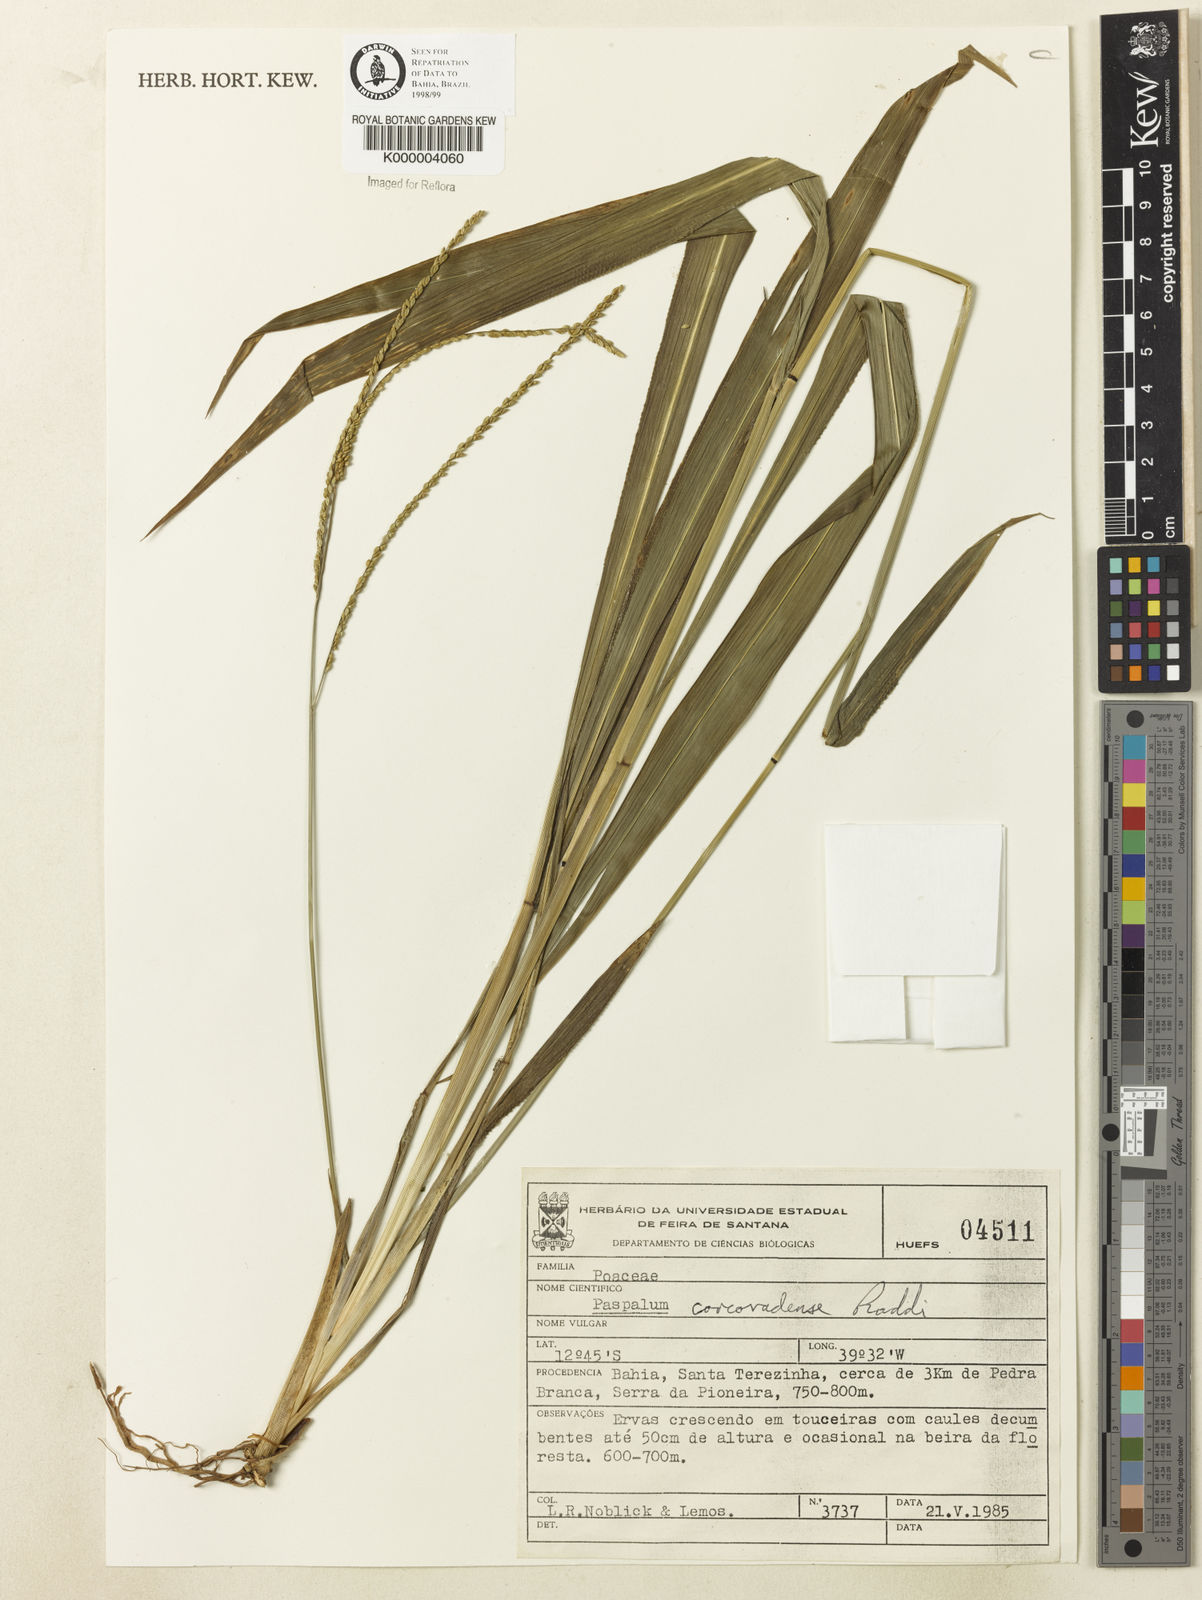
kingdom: Plantae
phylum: Tracheophyta
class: Liliopsida
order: Poales
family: Poaceae
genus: Paspalum
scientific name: Paspalum corcovadense
